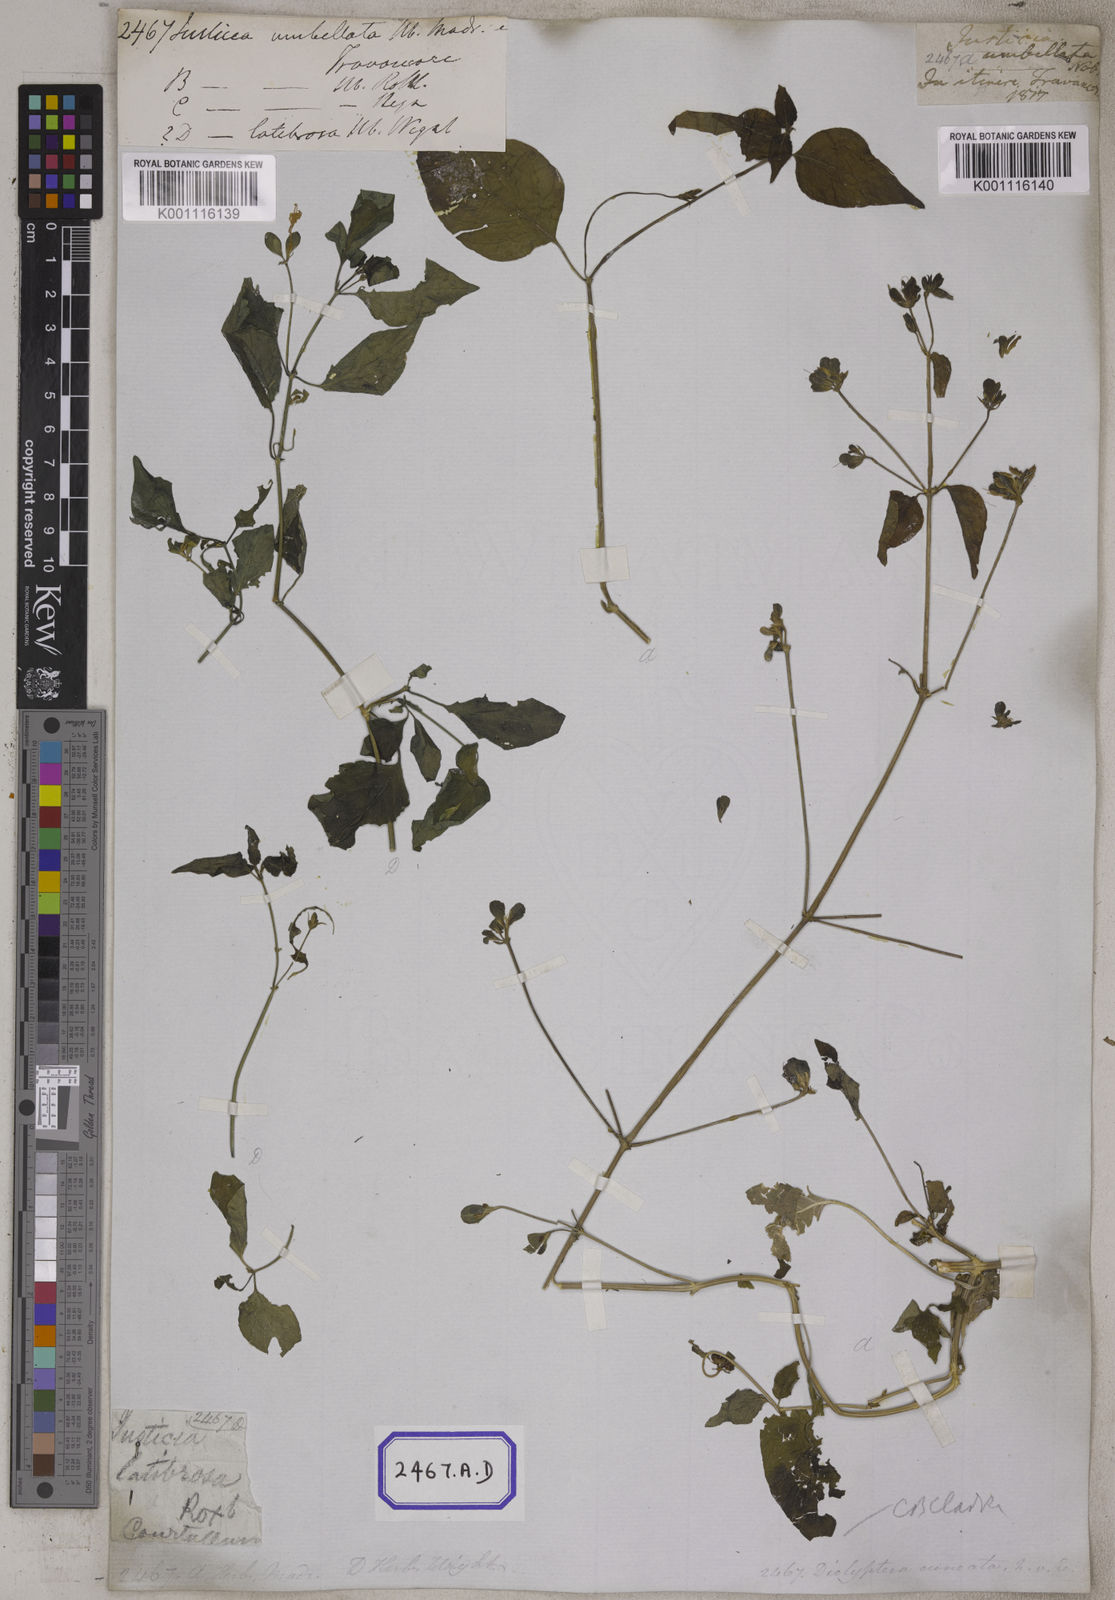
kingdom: Plantae
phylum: Tracheophyta
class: Magnoliopsida
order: Lamiales
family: Acanthaceae
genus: Justicia
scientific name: Justicia
